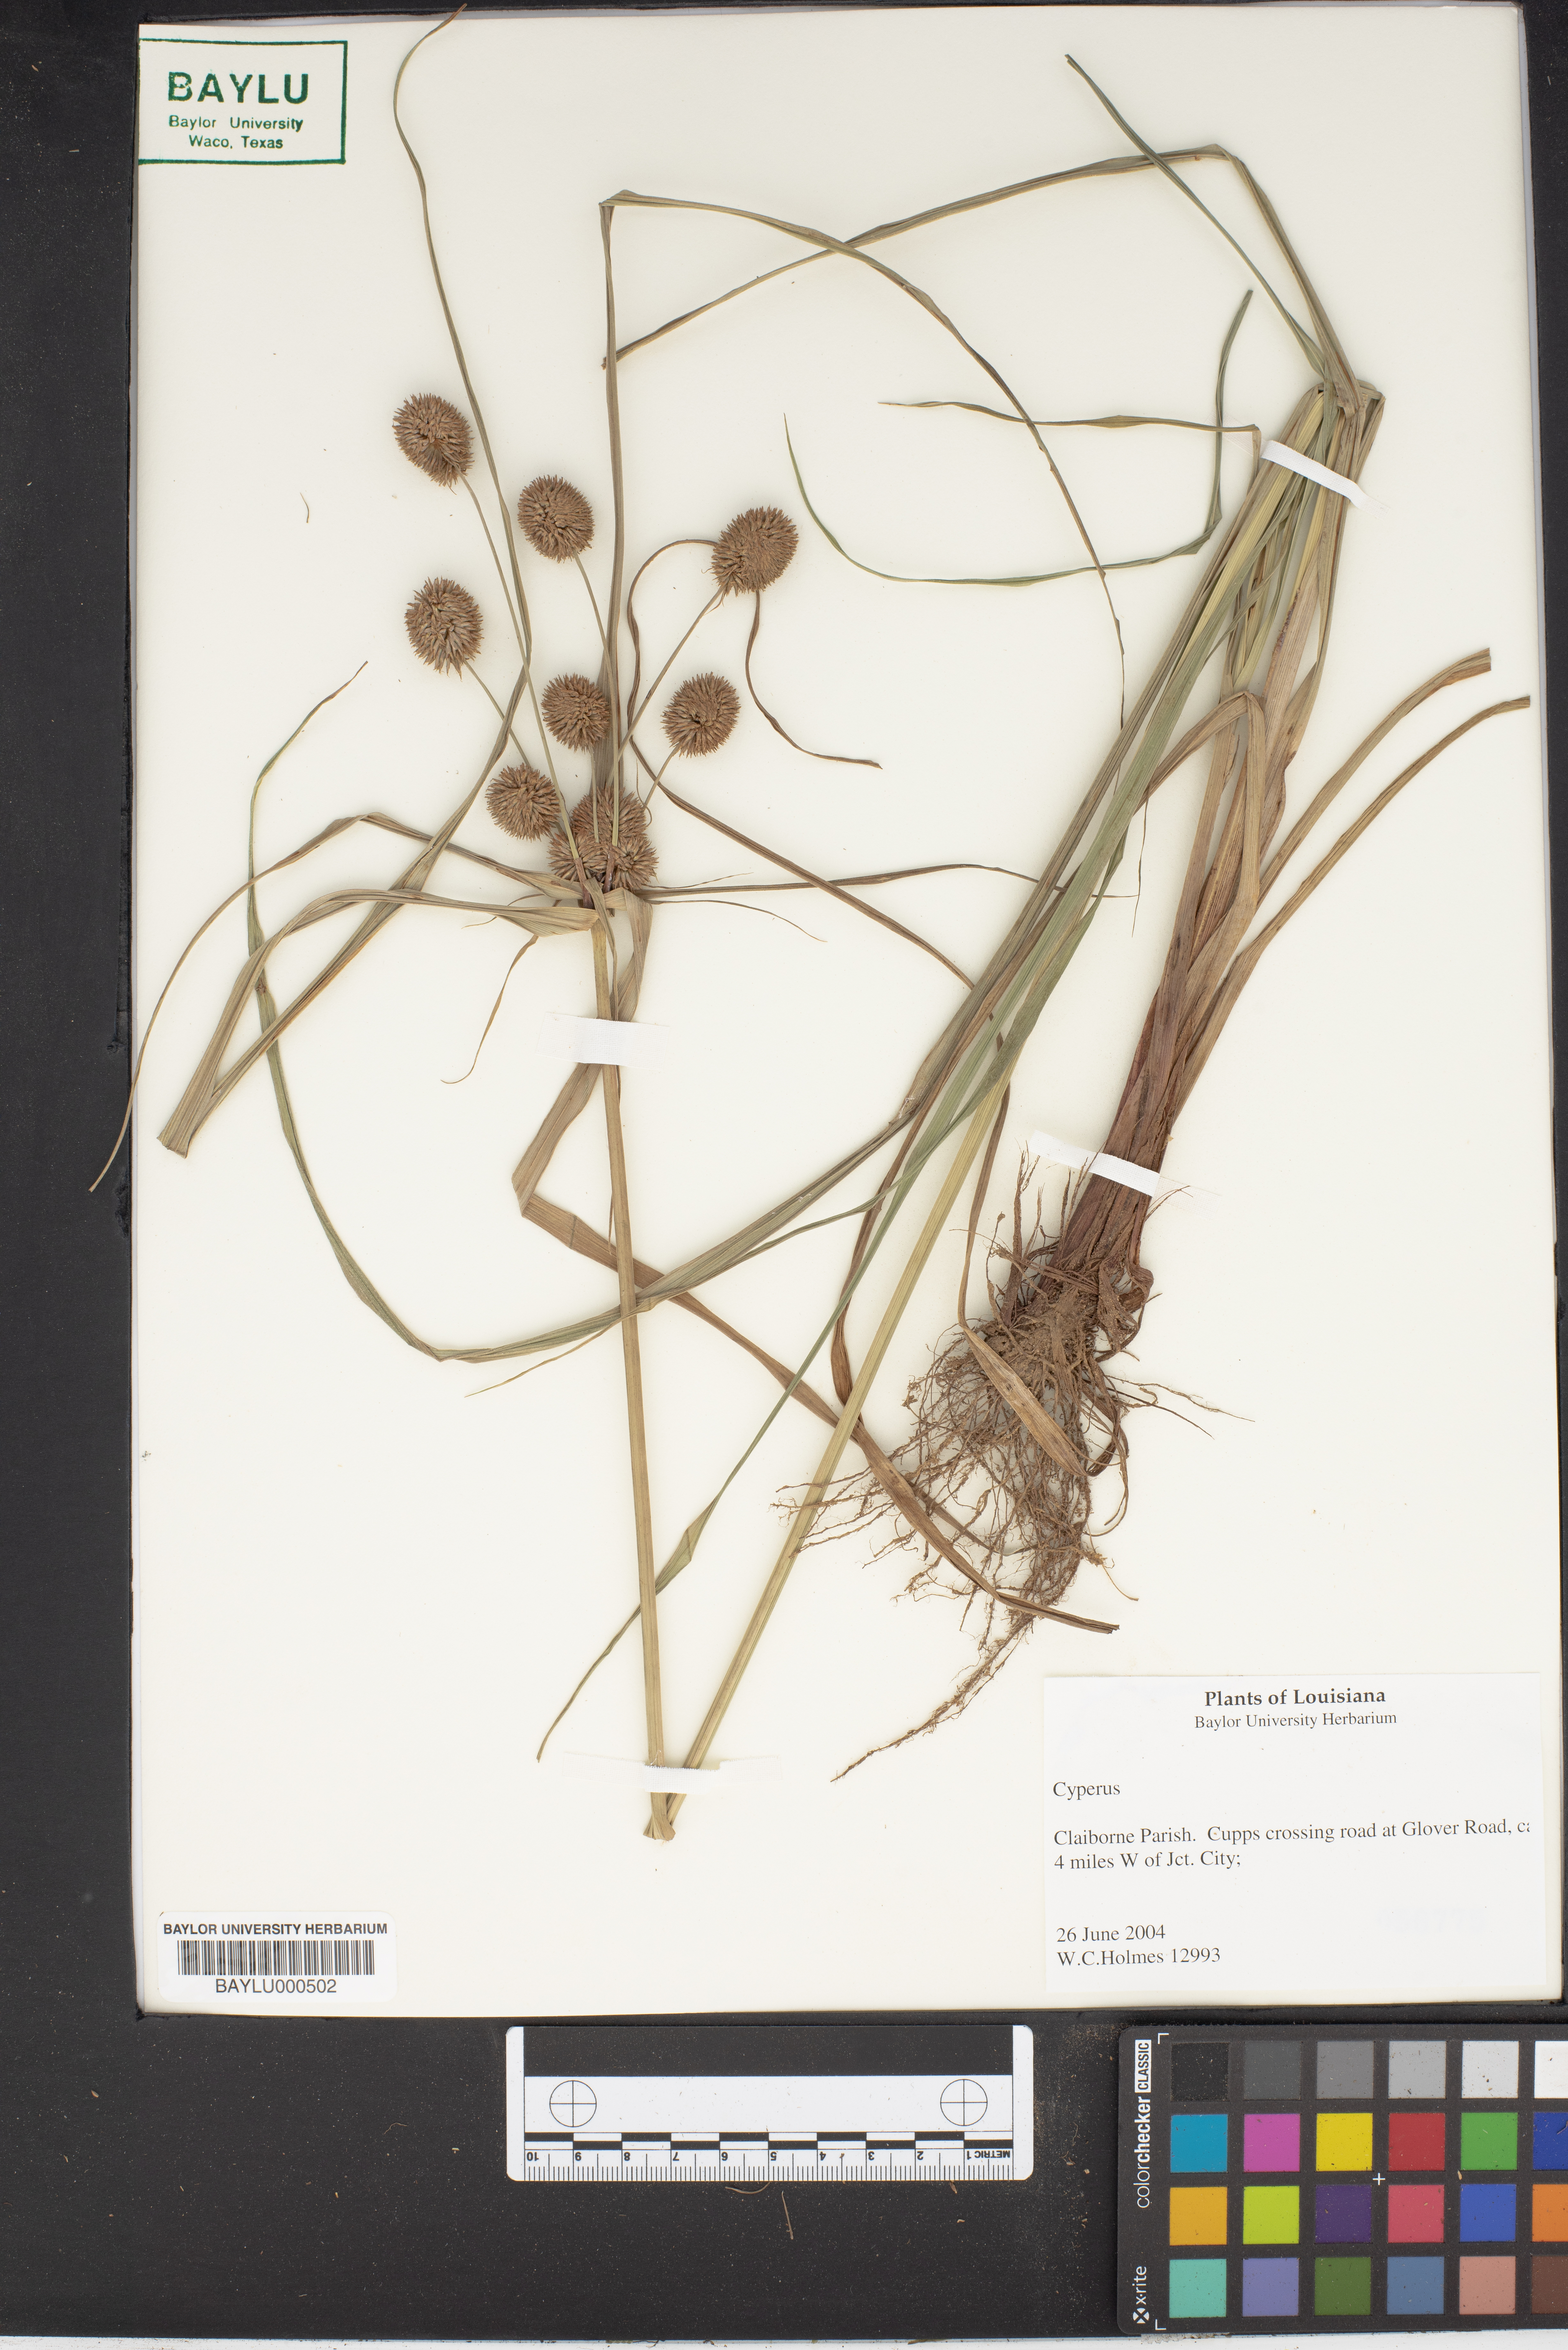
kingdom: Plantae
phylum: Tracheophyta
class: Liliopsida
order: Poales
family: Cyperaceae
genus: Cyperus
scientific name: Cyperus
